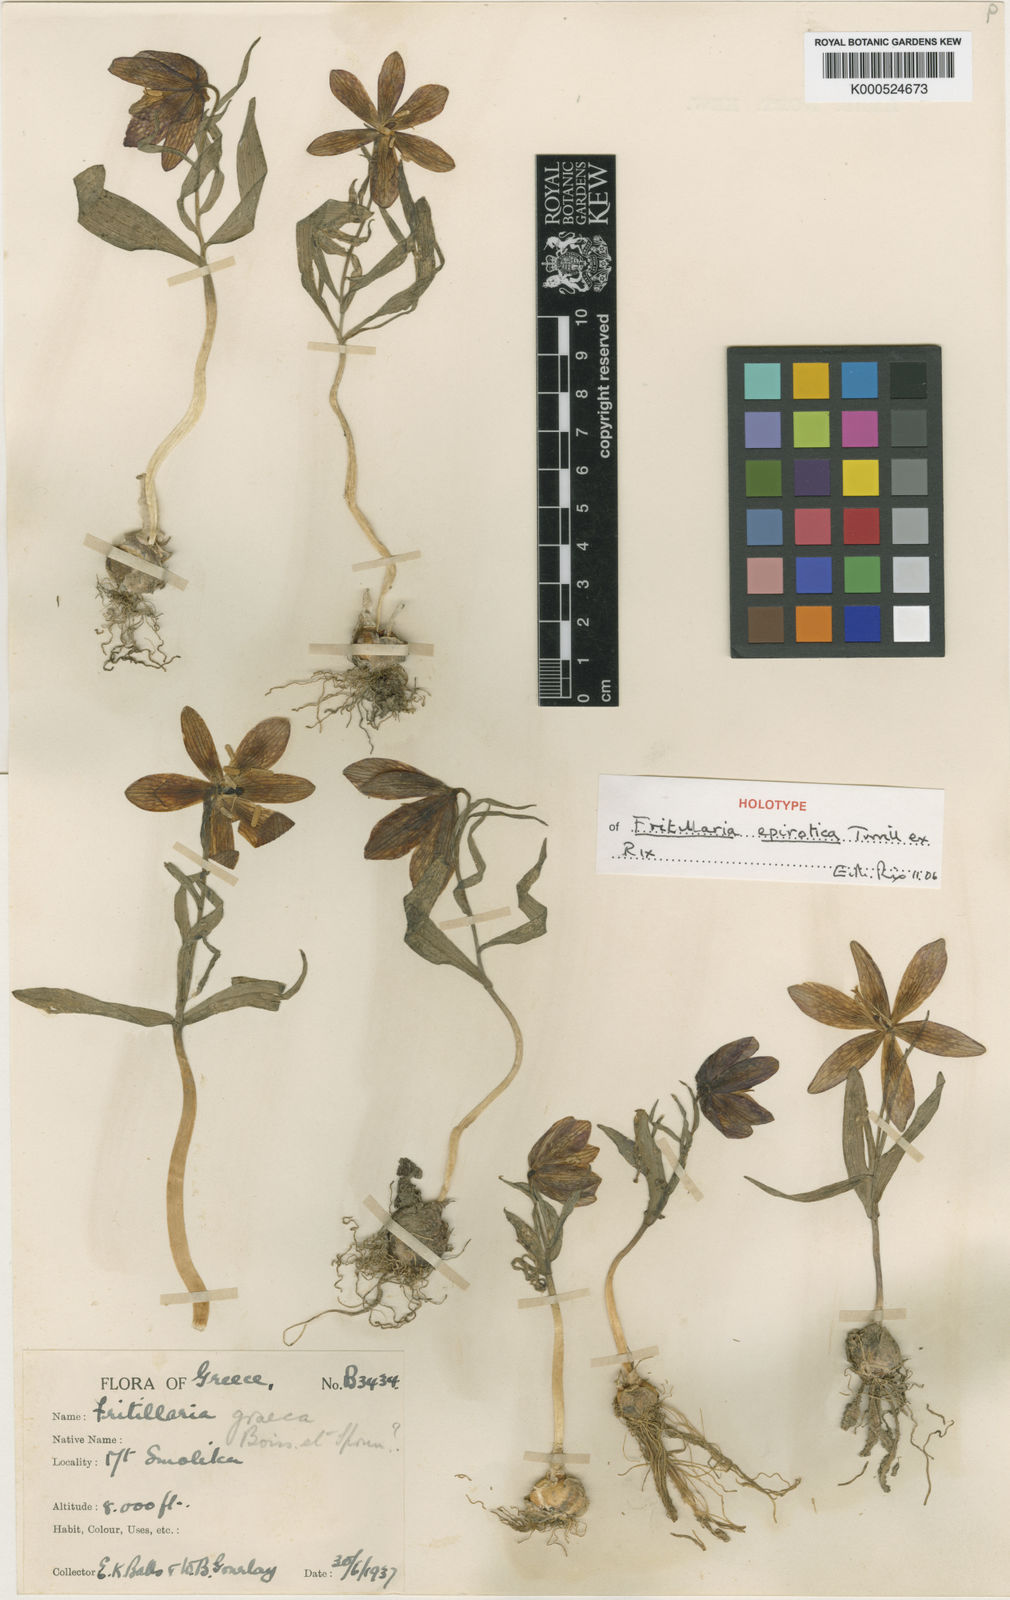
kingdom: Plantae
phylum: Tracheophyta
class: Liliopsida
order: Liliales
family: Liliaceae
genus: Fritillaria
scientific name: Fritillaria epirotica
